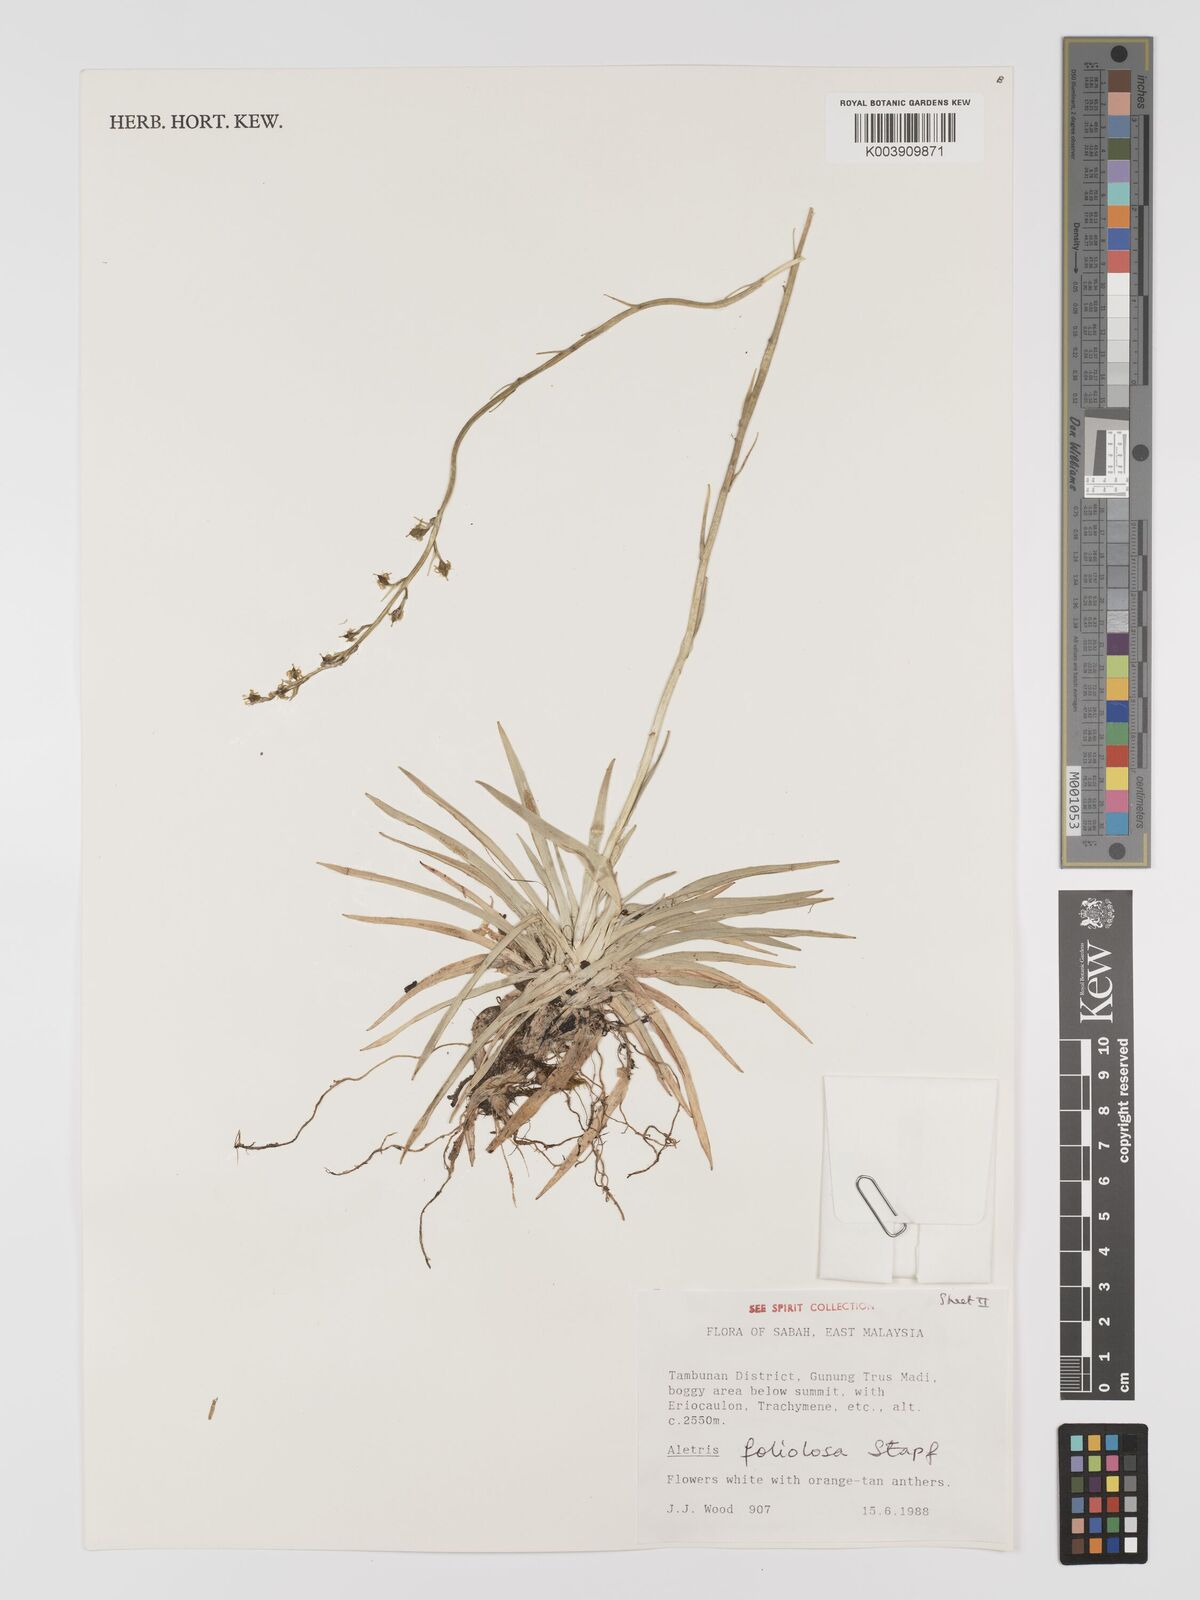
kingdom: Plantae
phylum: Tracheophyta
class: Liliopsida
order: Dioscoreales
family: Nartheciaceae
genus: Aletris
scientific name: Aletris foliolosa
